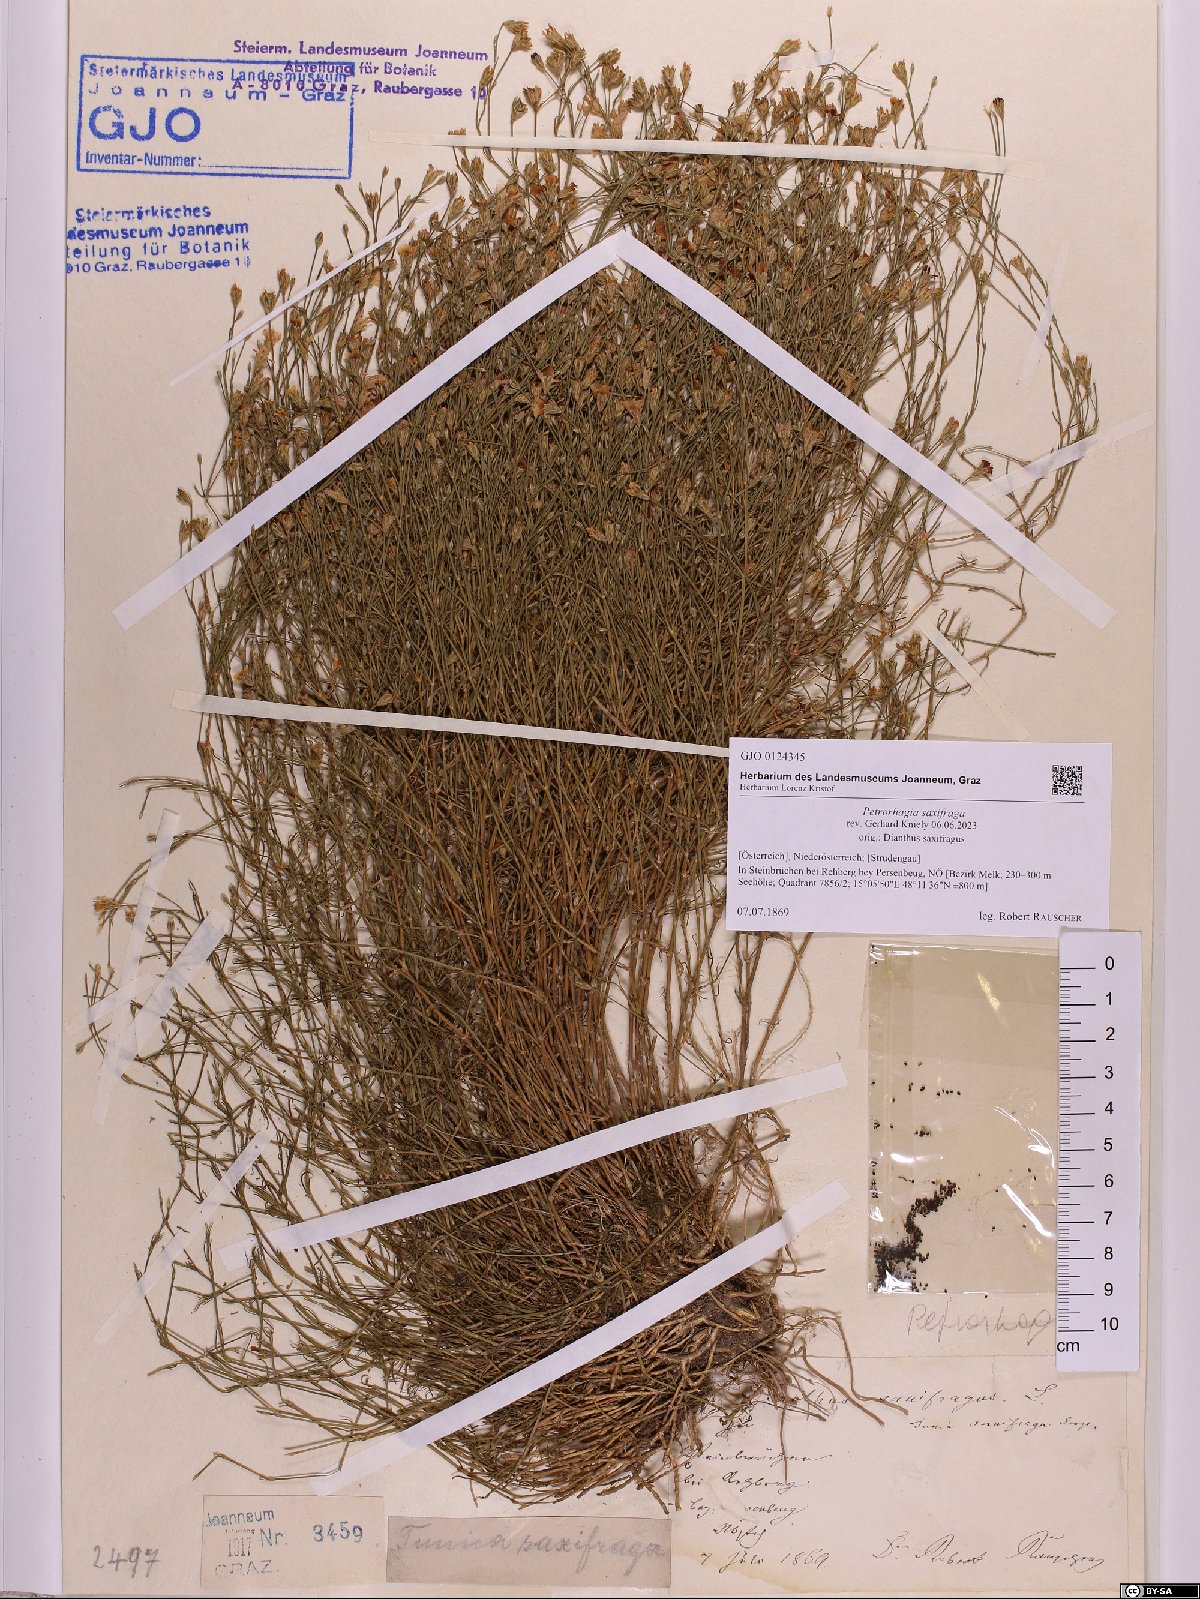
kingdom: Plantae
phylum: Tracheophyta
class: Magnoliopsida
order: Caryophyllales
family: Caryophyllaceae
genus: Petrorhagia
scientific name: Petrorhagia saxifraga
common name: Tunicflower
